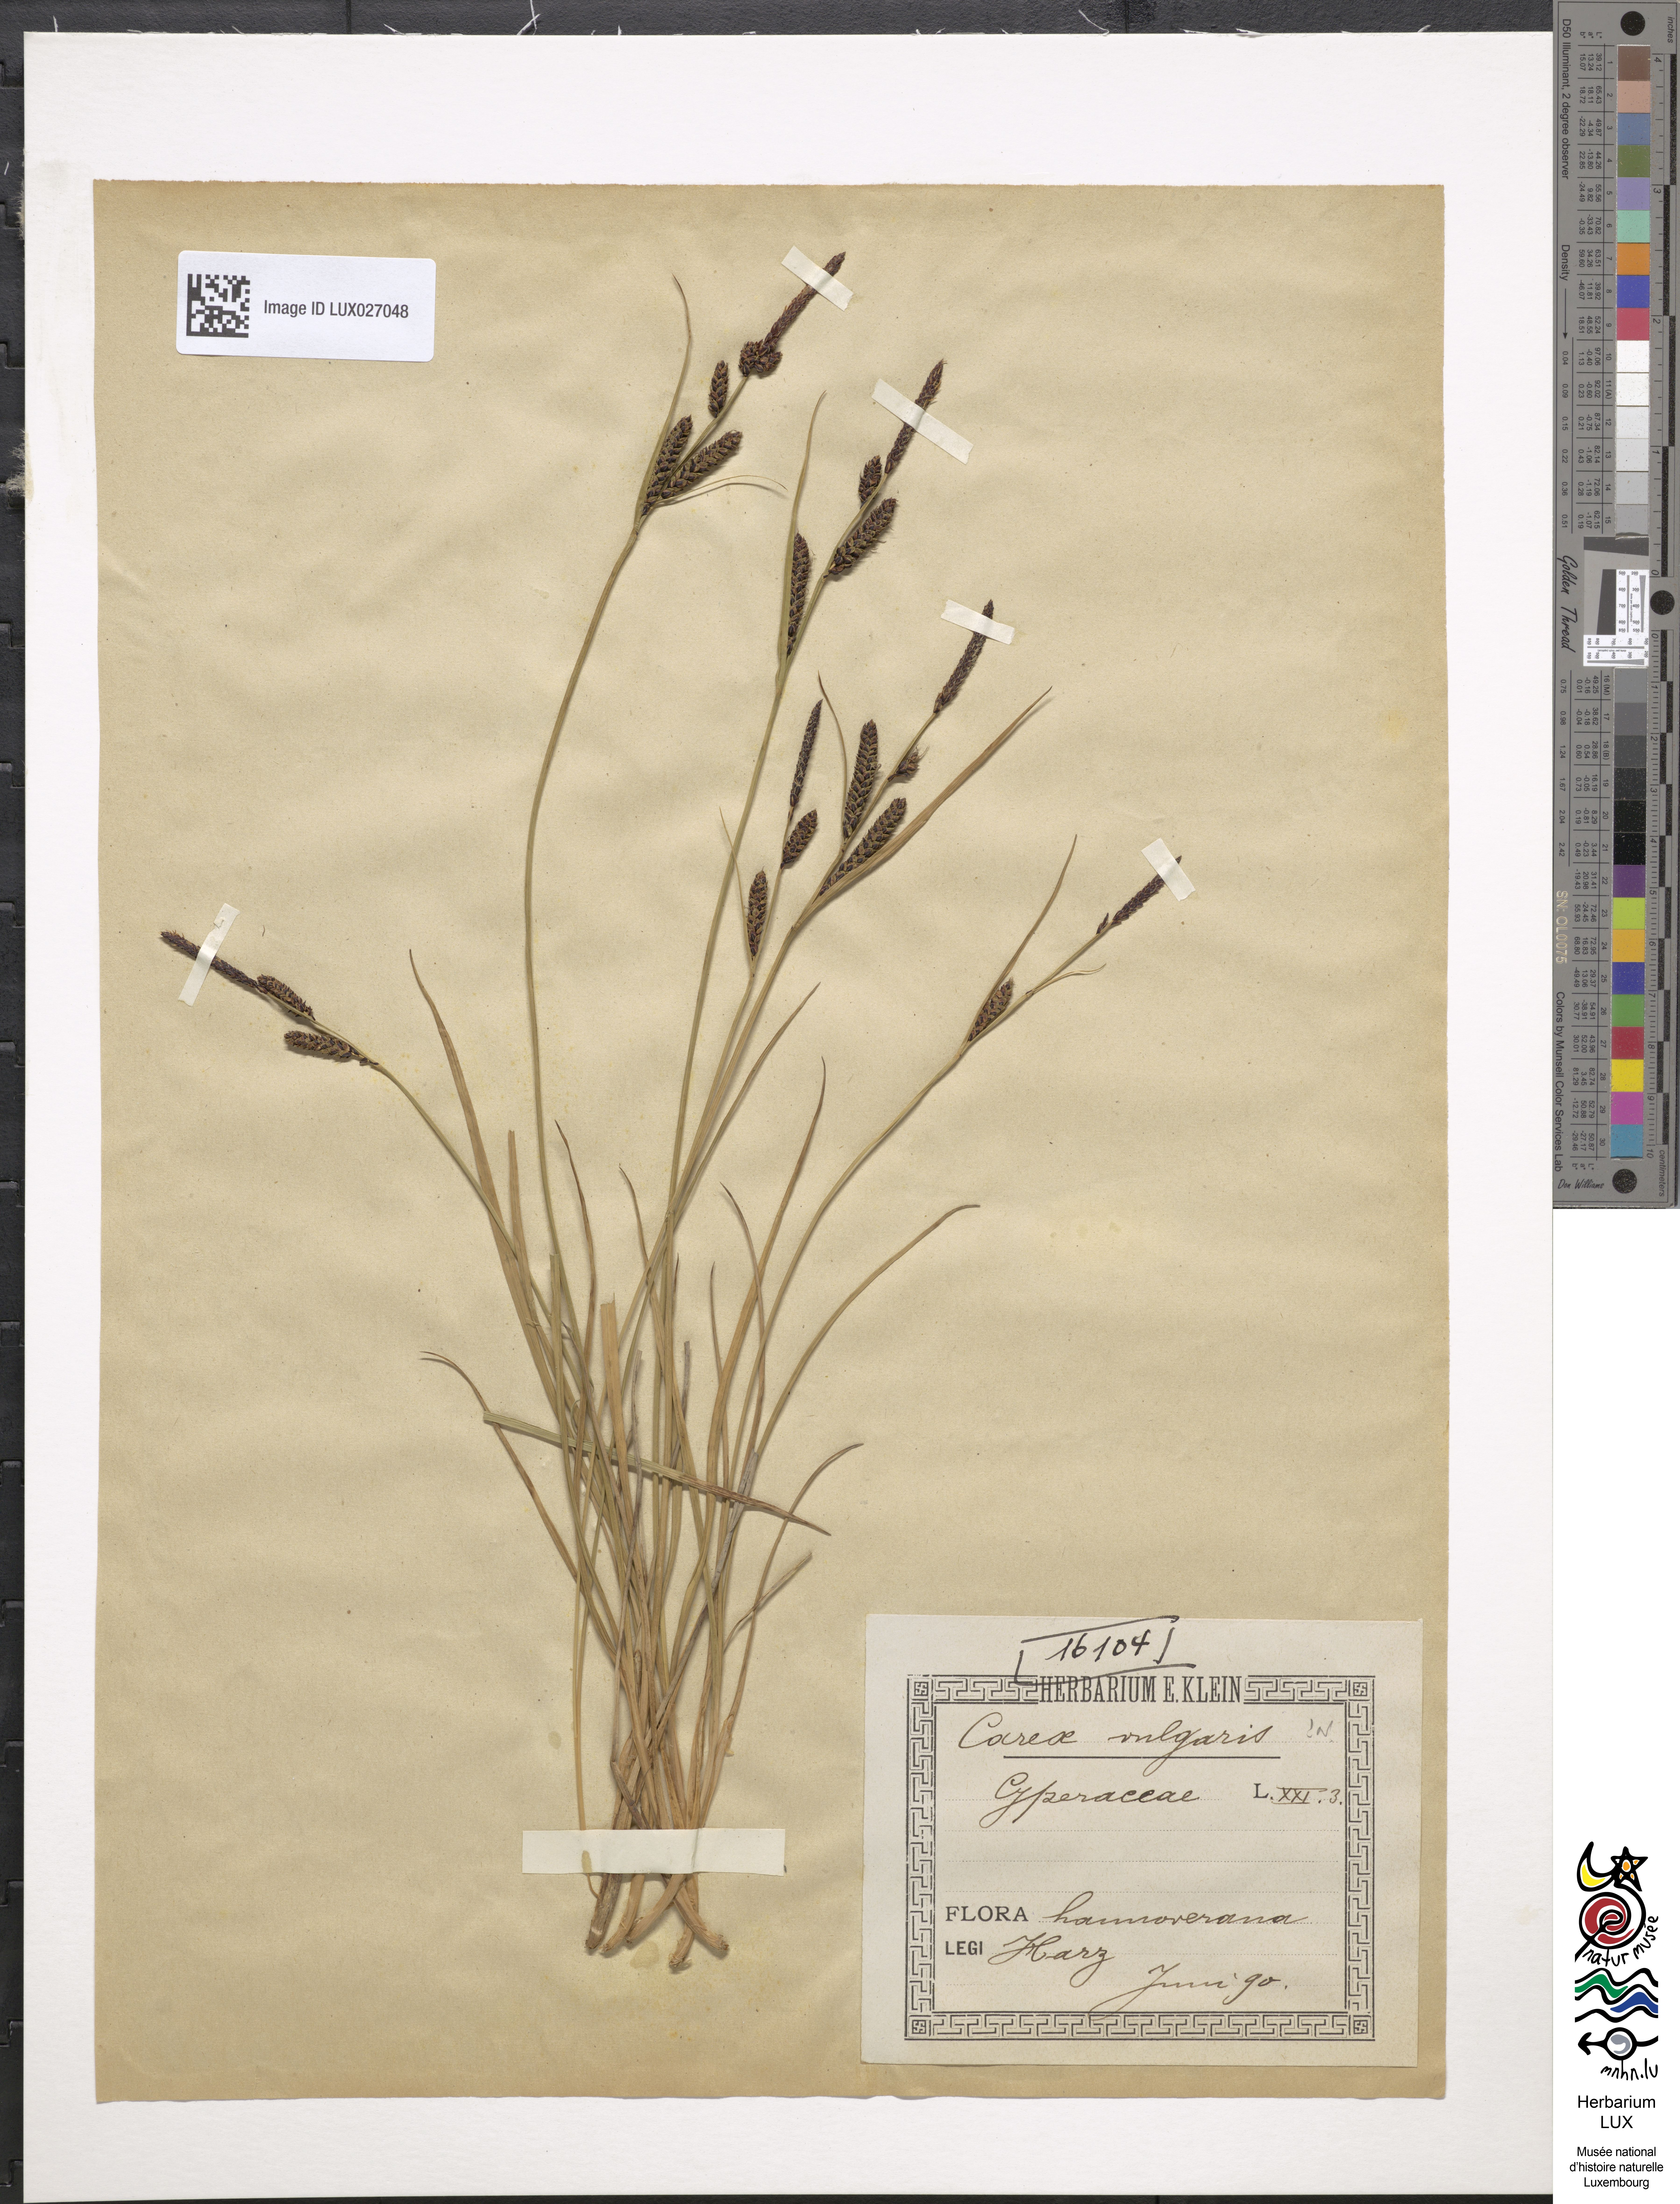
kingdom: Plantae
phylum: Tracheophyta
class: Liliopsida
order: Poales
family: Cyperaceae
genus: Carex
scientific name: Carex nigra
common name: Common sedge
